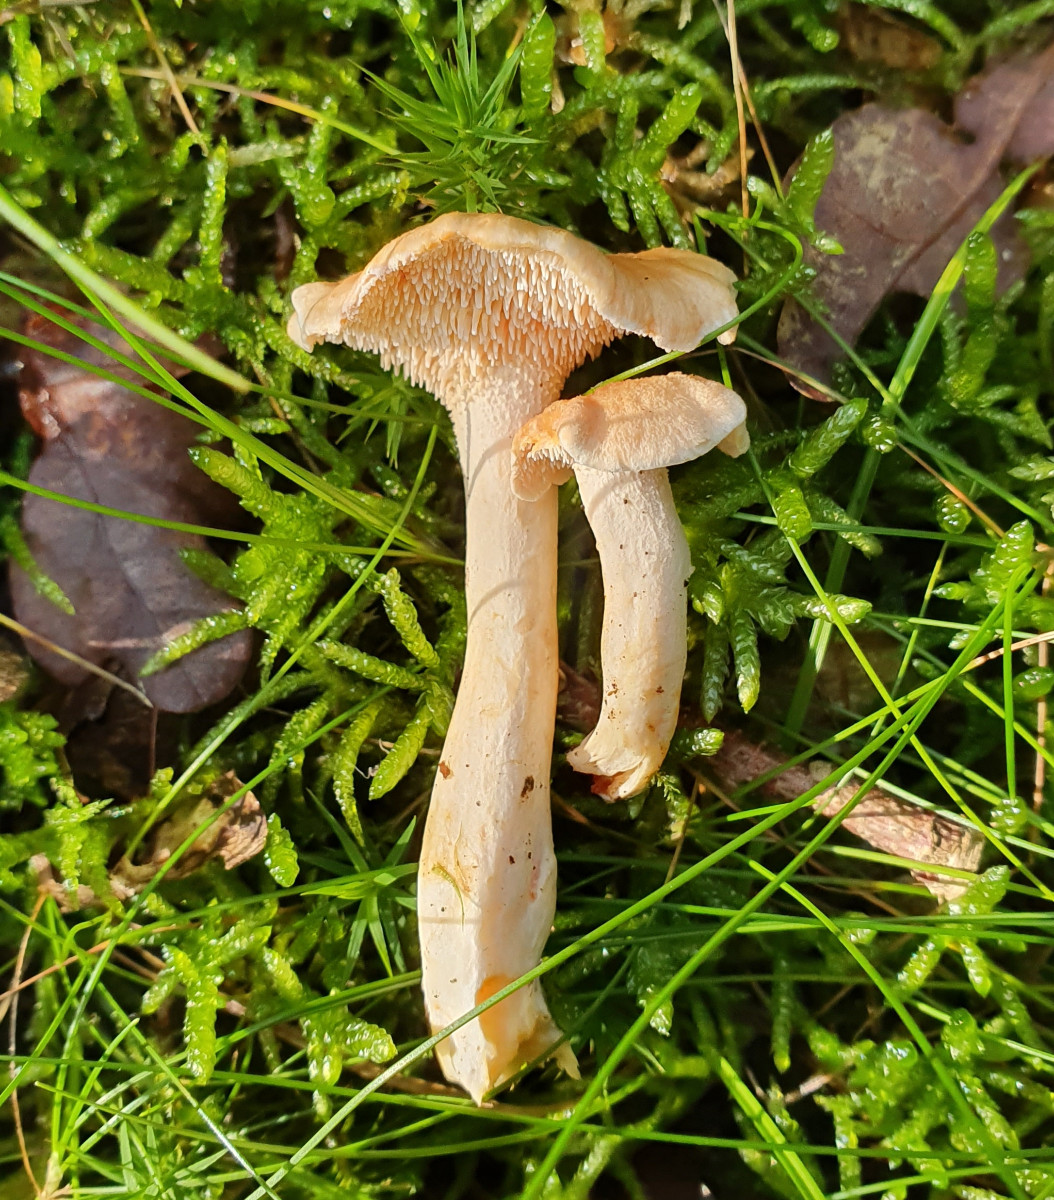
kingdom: Fungi
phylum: Basidiomycota
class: Agaricomycetes
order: Cantharellales
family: Hydnaceae
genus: Hydnum
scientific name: Hydnum
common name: pigsvamp
